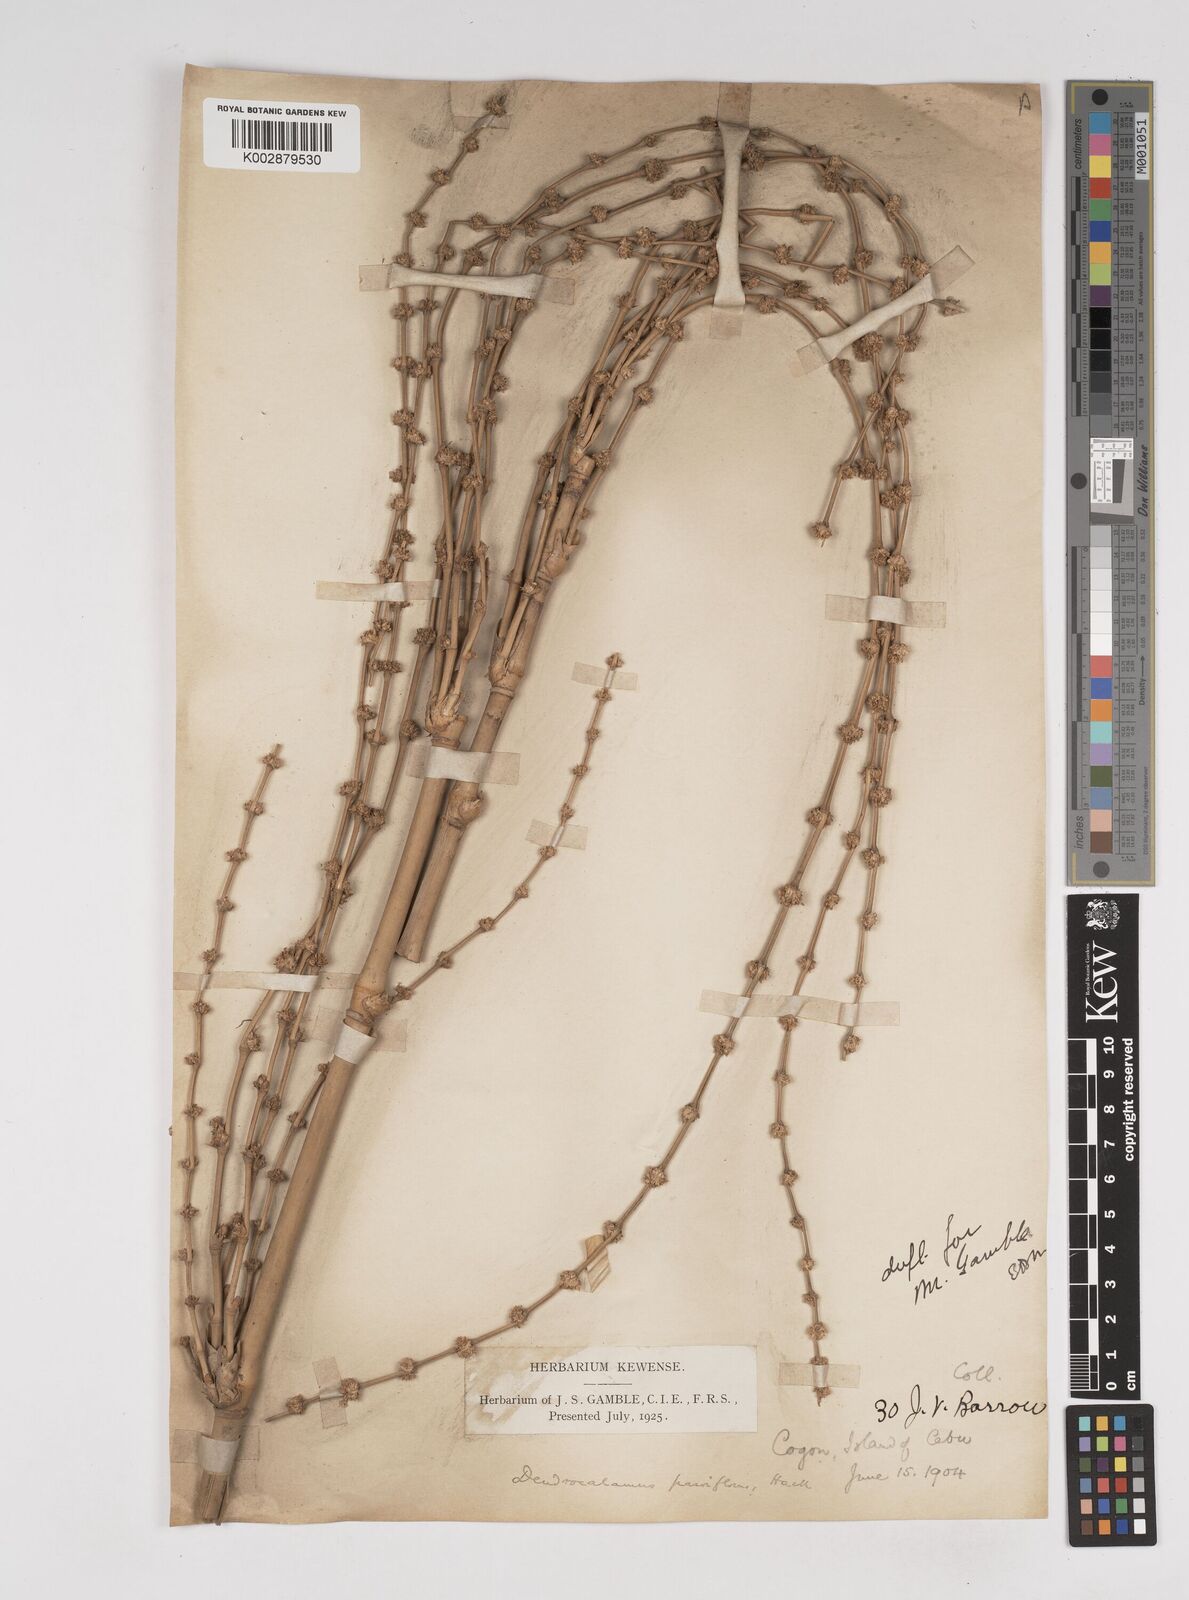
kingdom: Plantae
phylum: Tracheophyta
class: Liliopsida
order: Poales
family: Poaceae
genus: Dendrocalamus
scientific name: Dendrocalamus merrillianus
